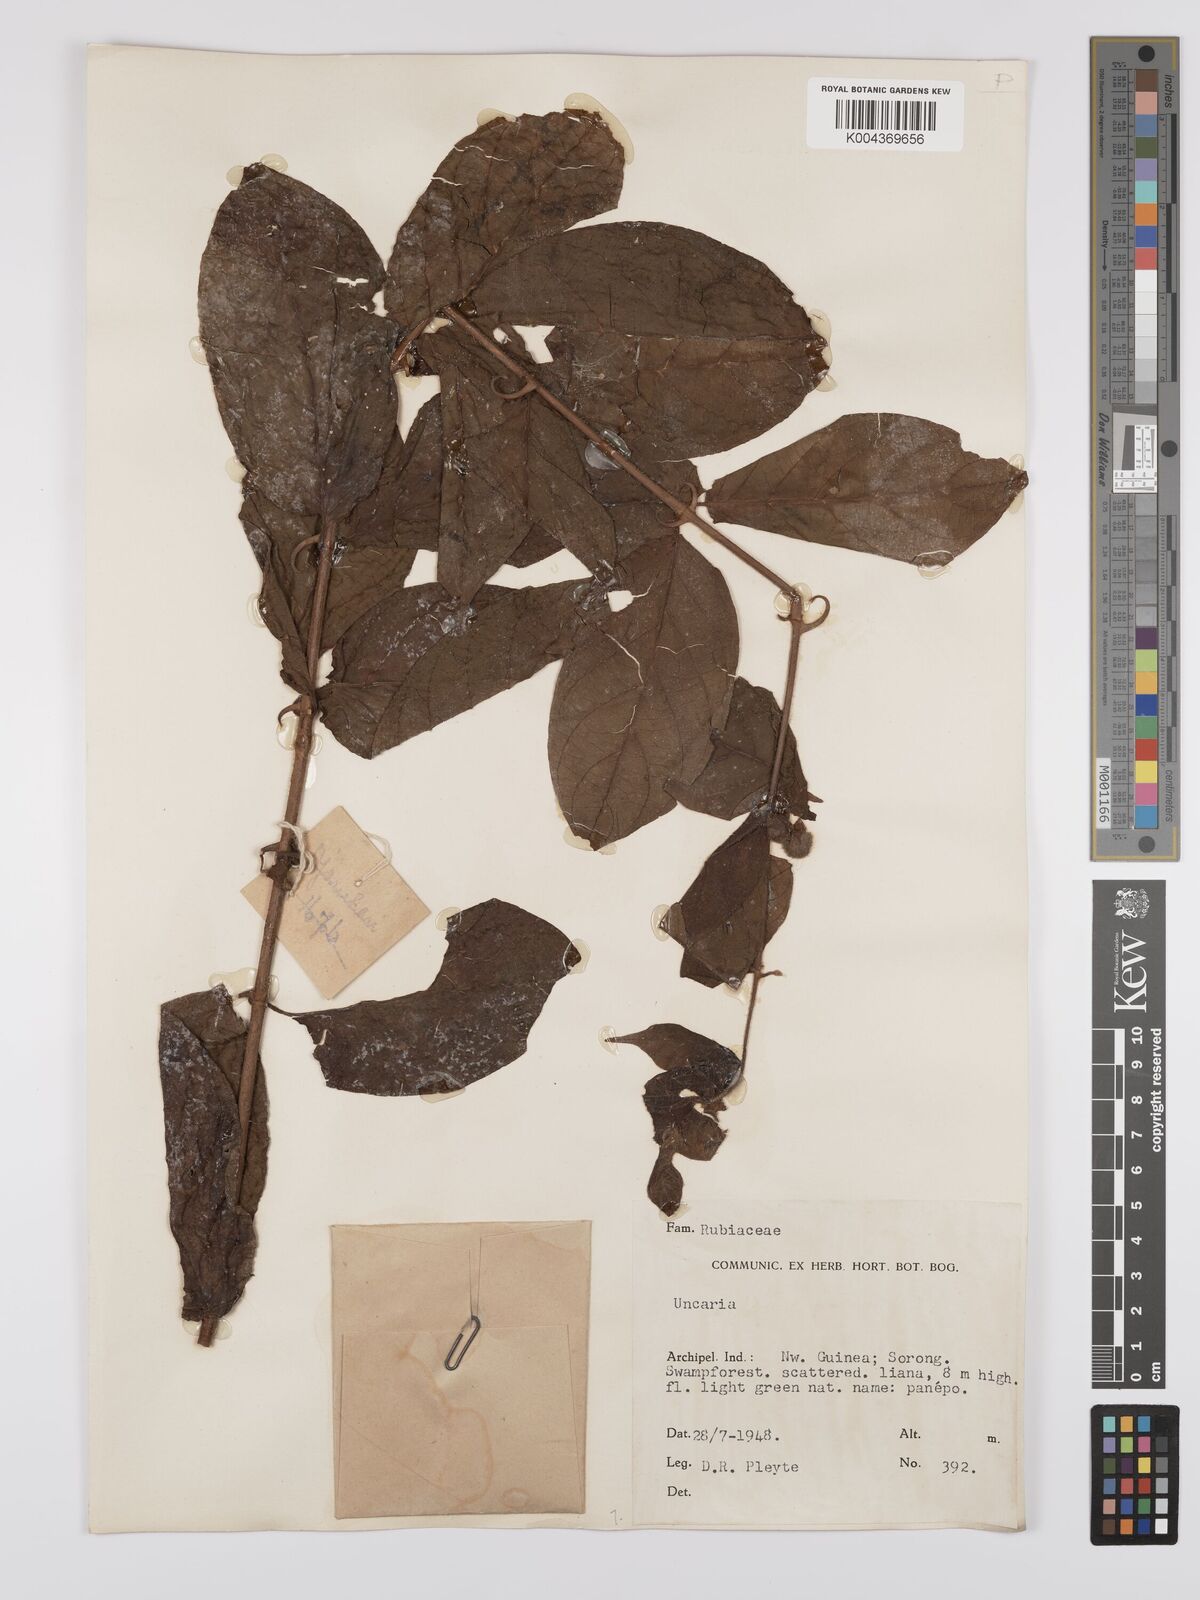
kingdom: Plantae
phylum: Tracheophyta
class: Magnoliopsida
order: Gentianales
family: Rubiaceae
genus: Uncaria
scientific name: Uncaria lanosa
